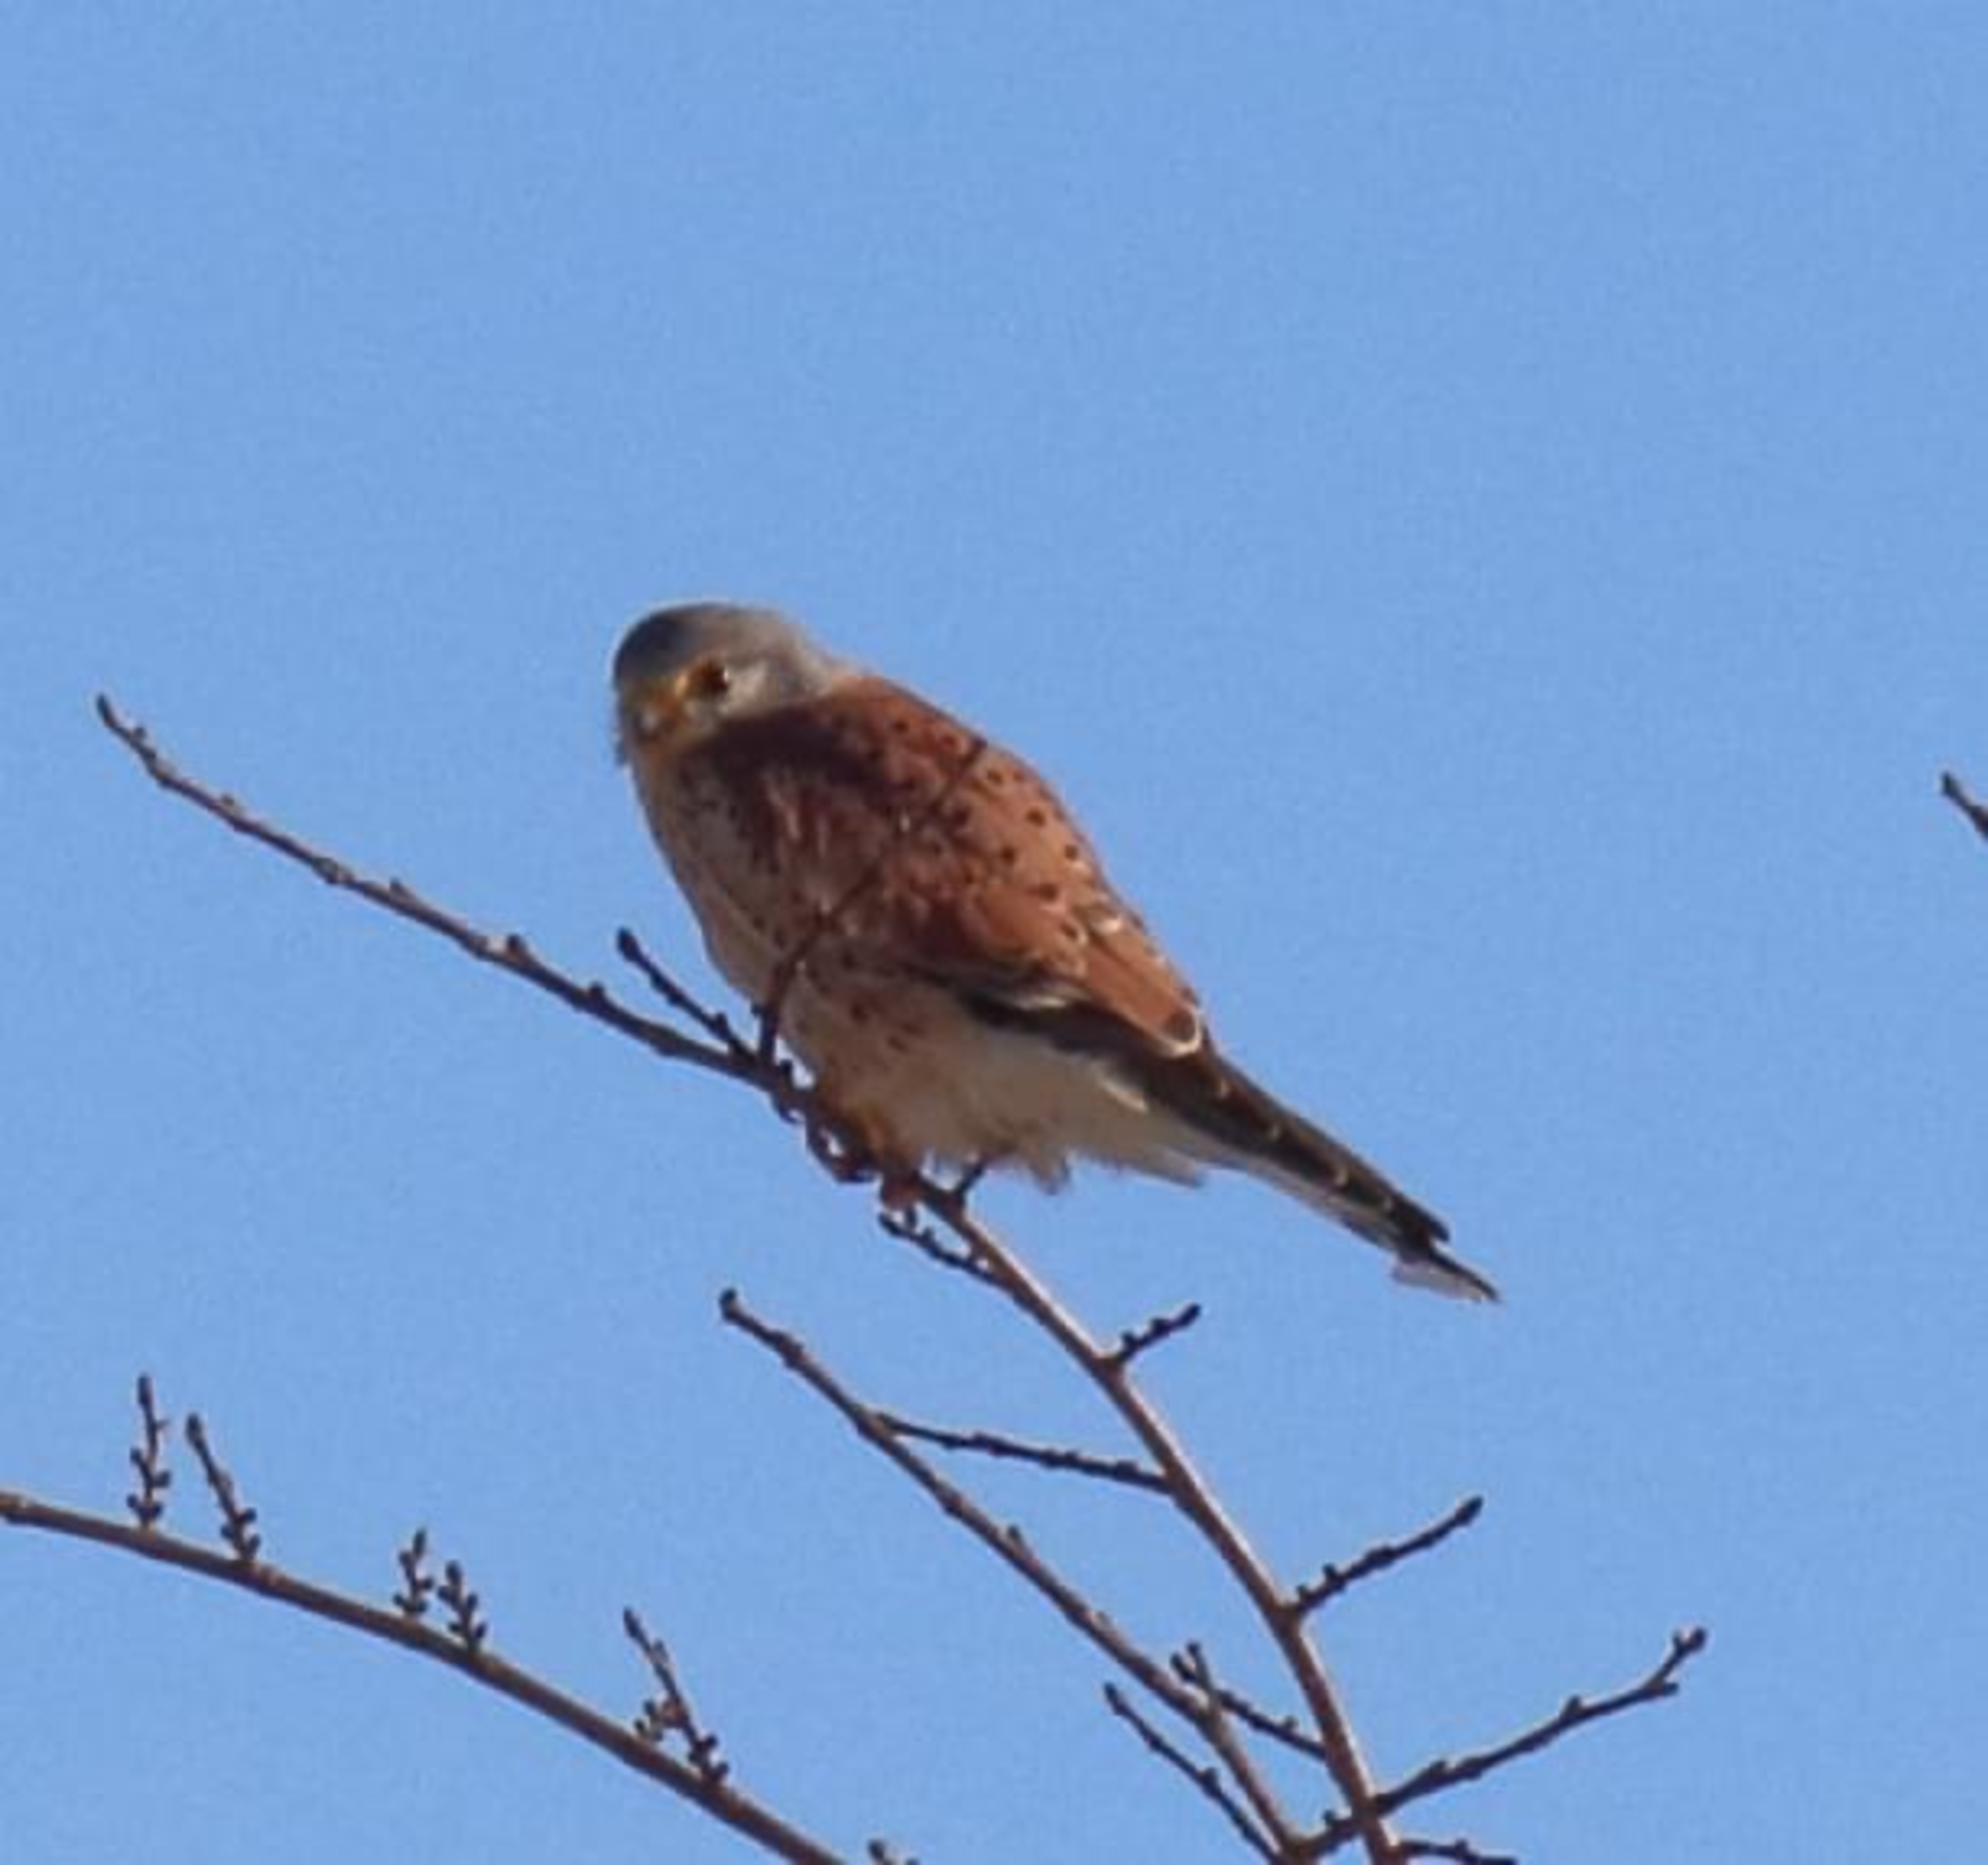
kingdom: Animalia
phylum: Chordata
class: Aves
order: Falconiformes
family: Falconidae
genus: Falco
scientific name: Falco tinnunculus
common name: Tårnfalk
